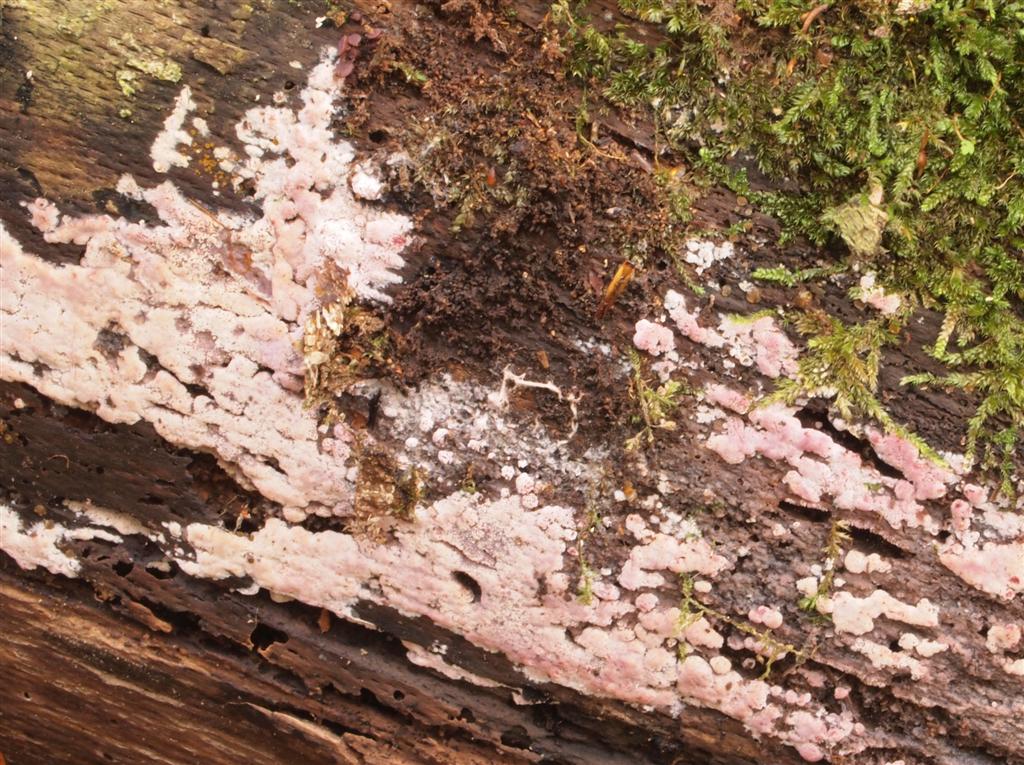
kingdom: Fungi
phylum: Basidiomycota
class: Agaricomycetes
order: Polyporales
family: Irpicaceae
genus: Ceriporia
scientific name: Ceriporia excelsa
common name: lilla voksporesvamp
